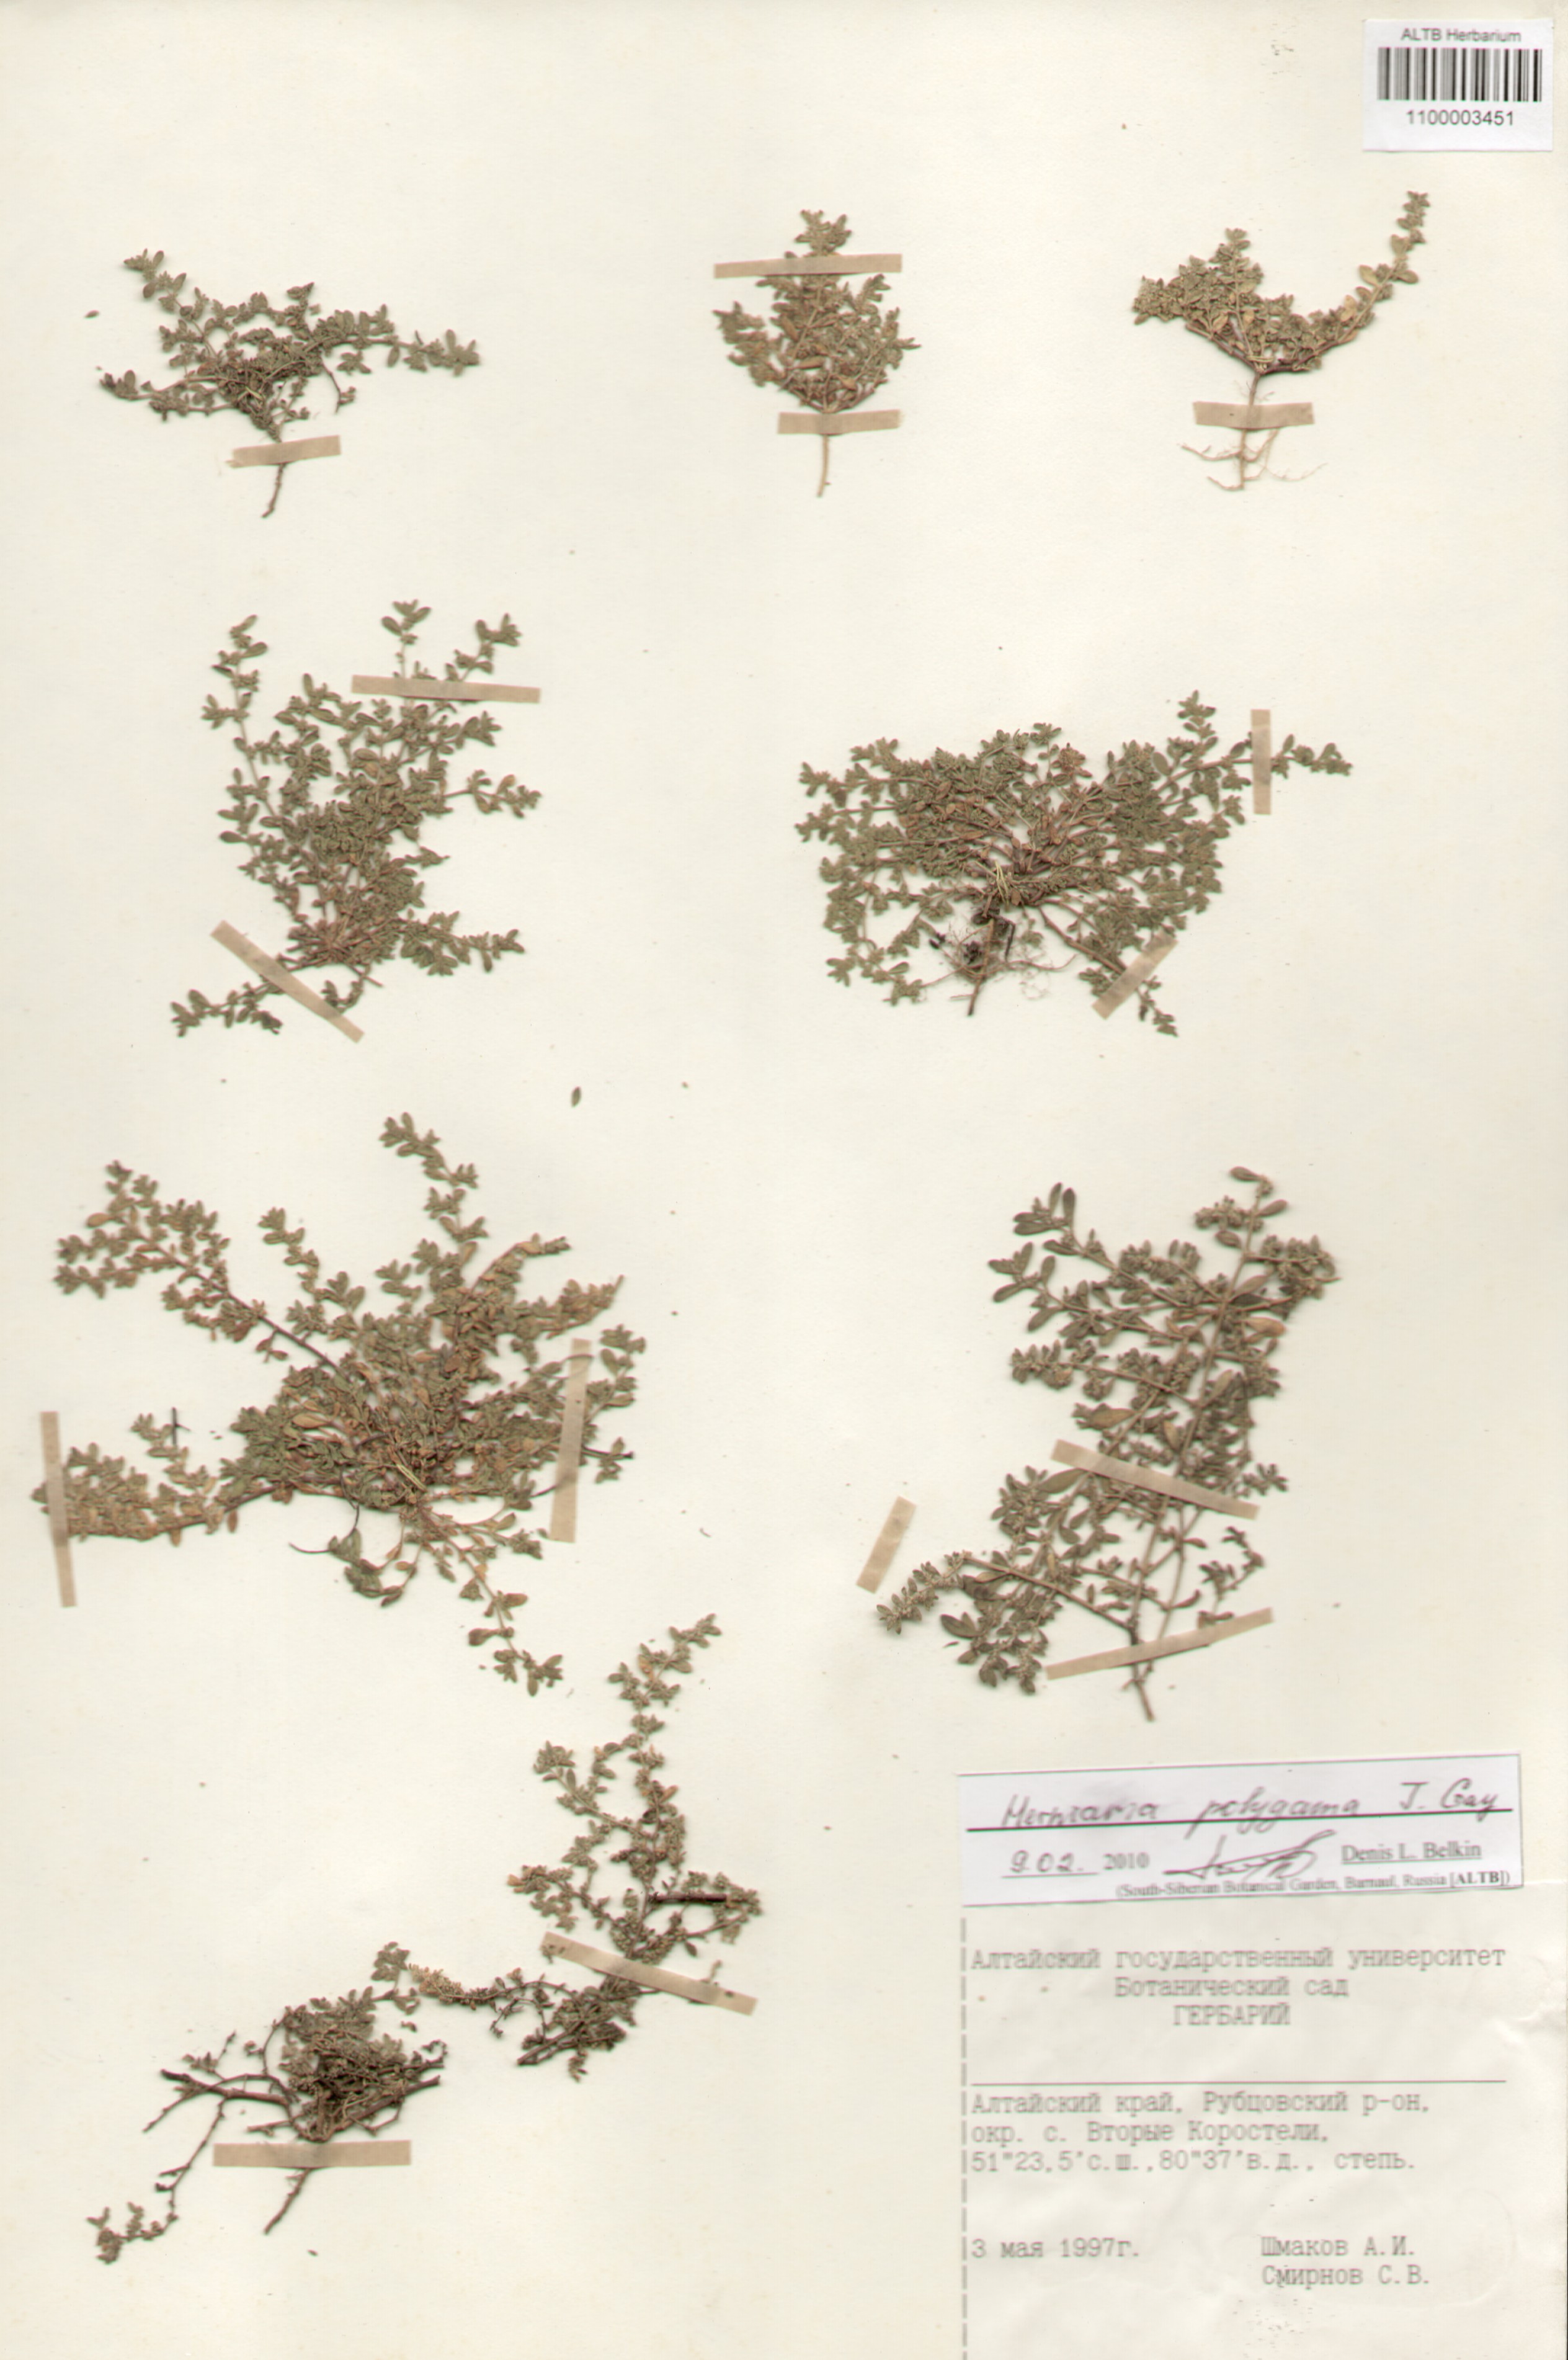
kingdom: Plantae
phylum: Tracheophyta
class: Magnoliopsida
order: Caryophyllales
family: Caryophyllaceae
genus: Herniaria
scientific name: Herniaria polygama
